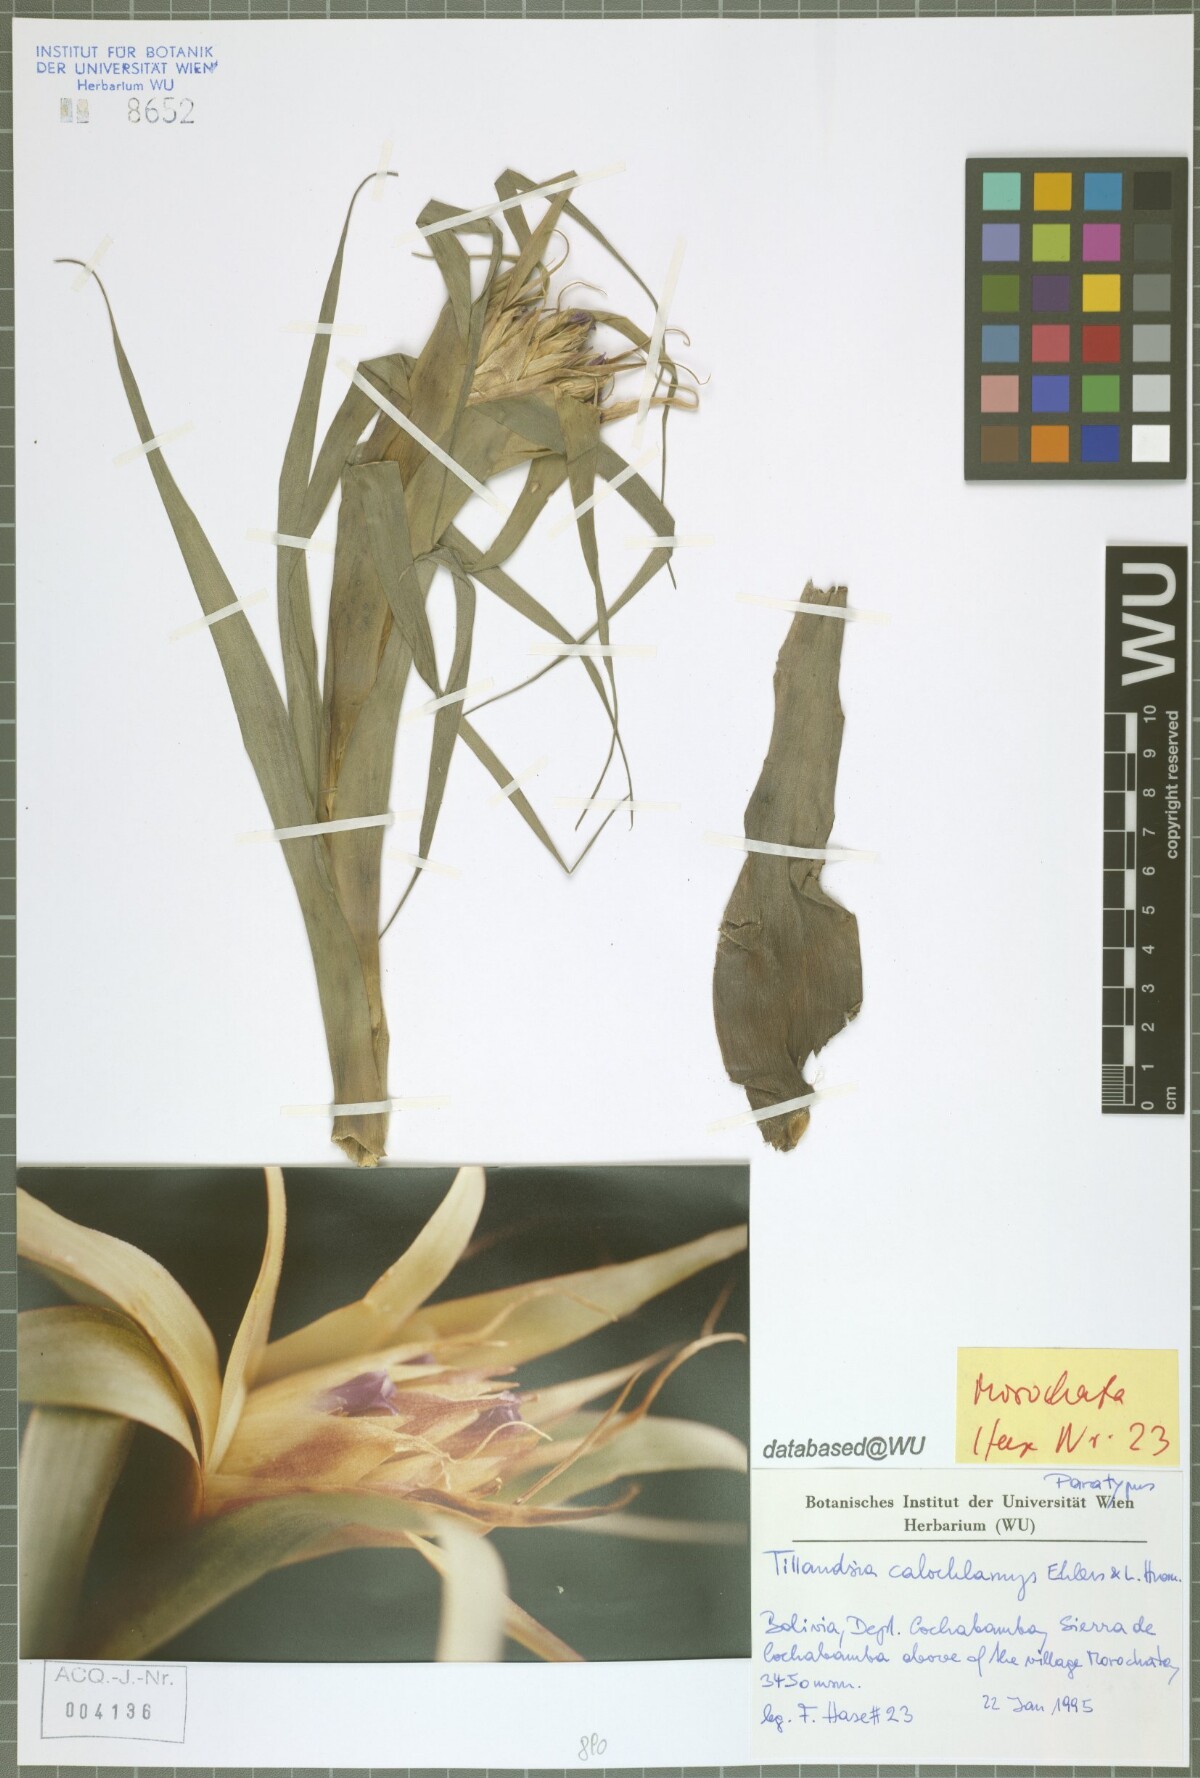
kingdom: Plantae
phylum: Tracheophyta
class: Liliopsida
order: Poales
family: Bromeliaceae
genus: Tillandsia
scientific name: Tillandsia calochlamys
